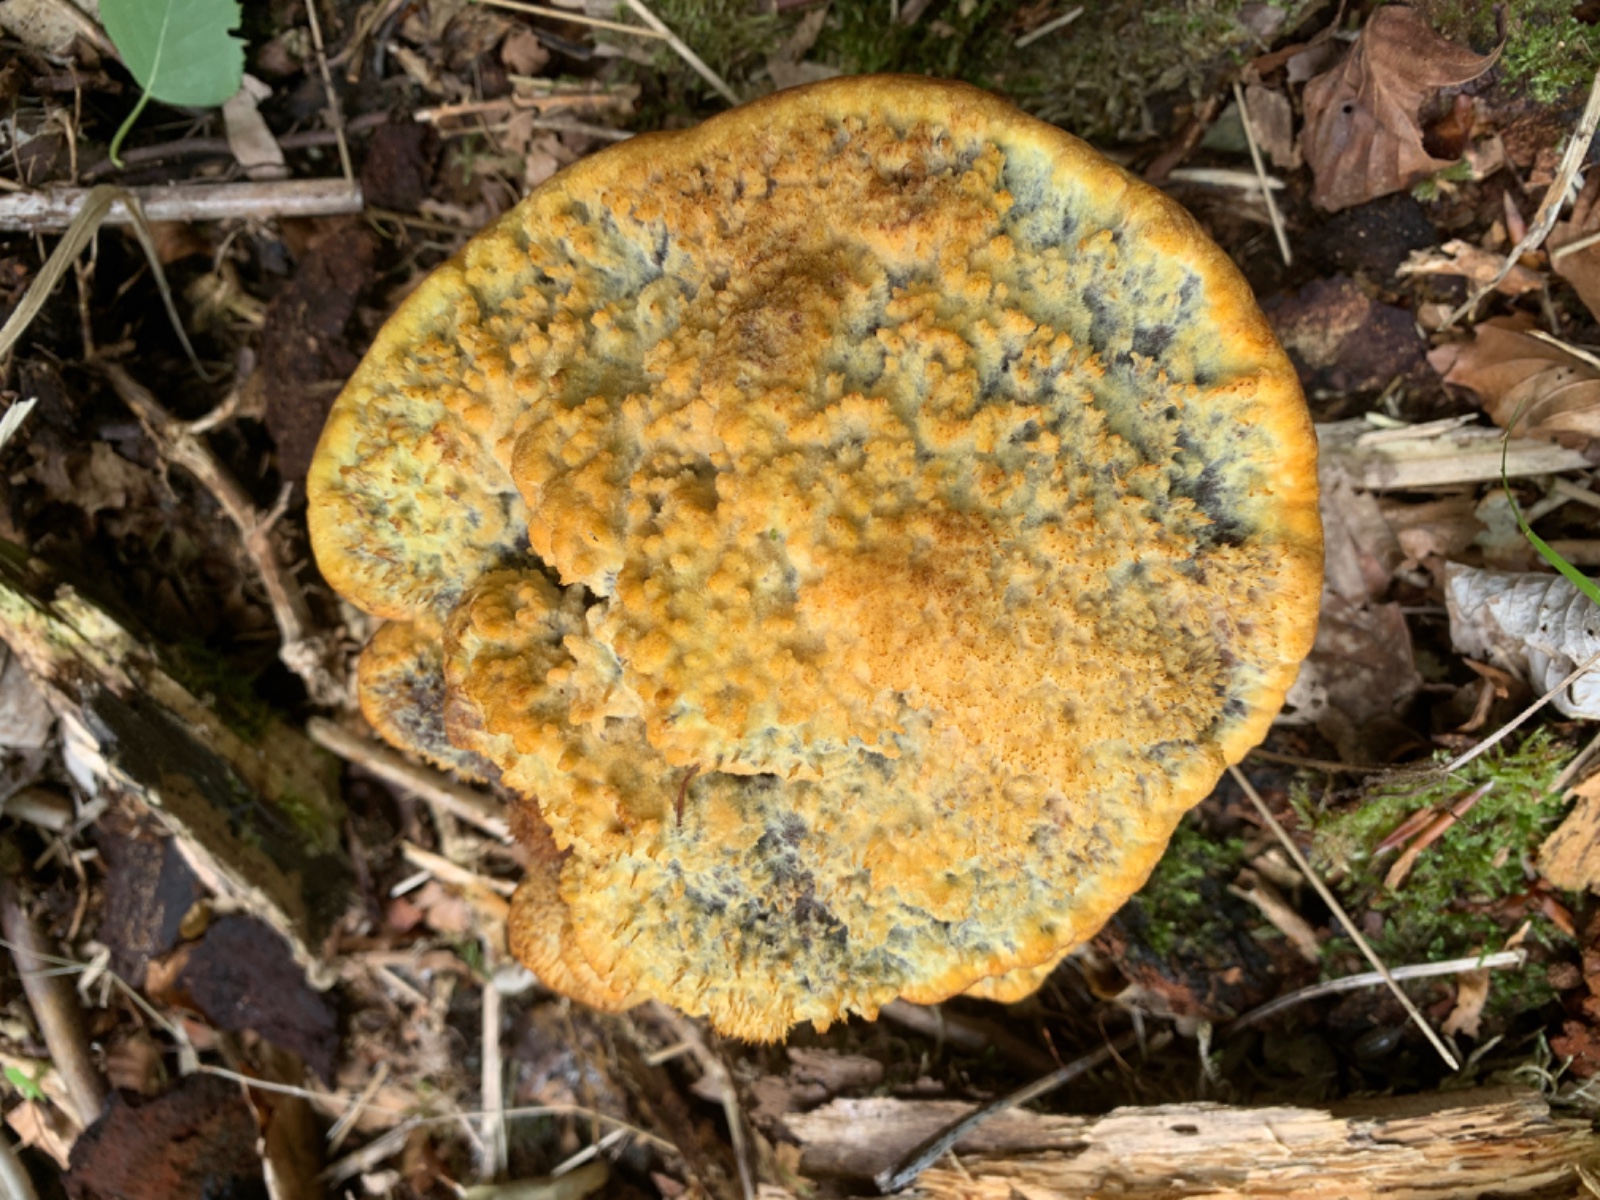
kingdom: Fungi
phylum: Basidiomycota
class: Agaricomycetes
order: Polyporales
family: Laetiporaceae
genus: Phaeolus
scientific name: Phaeolus schweinitzii
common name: brunporesvamp
